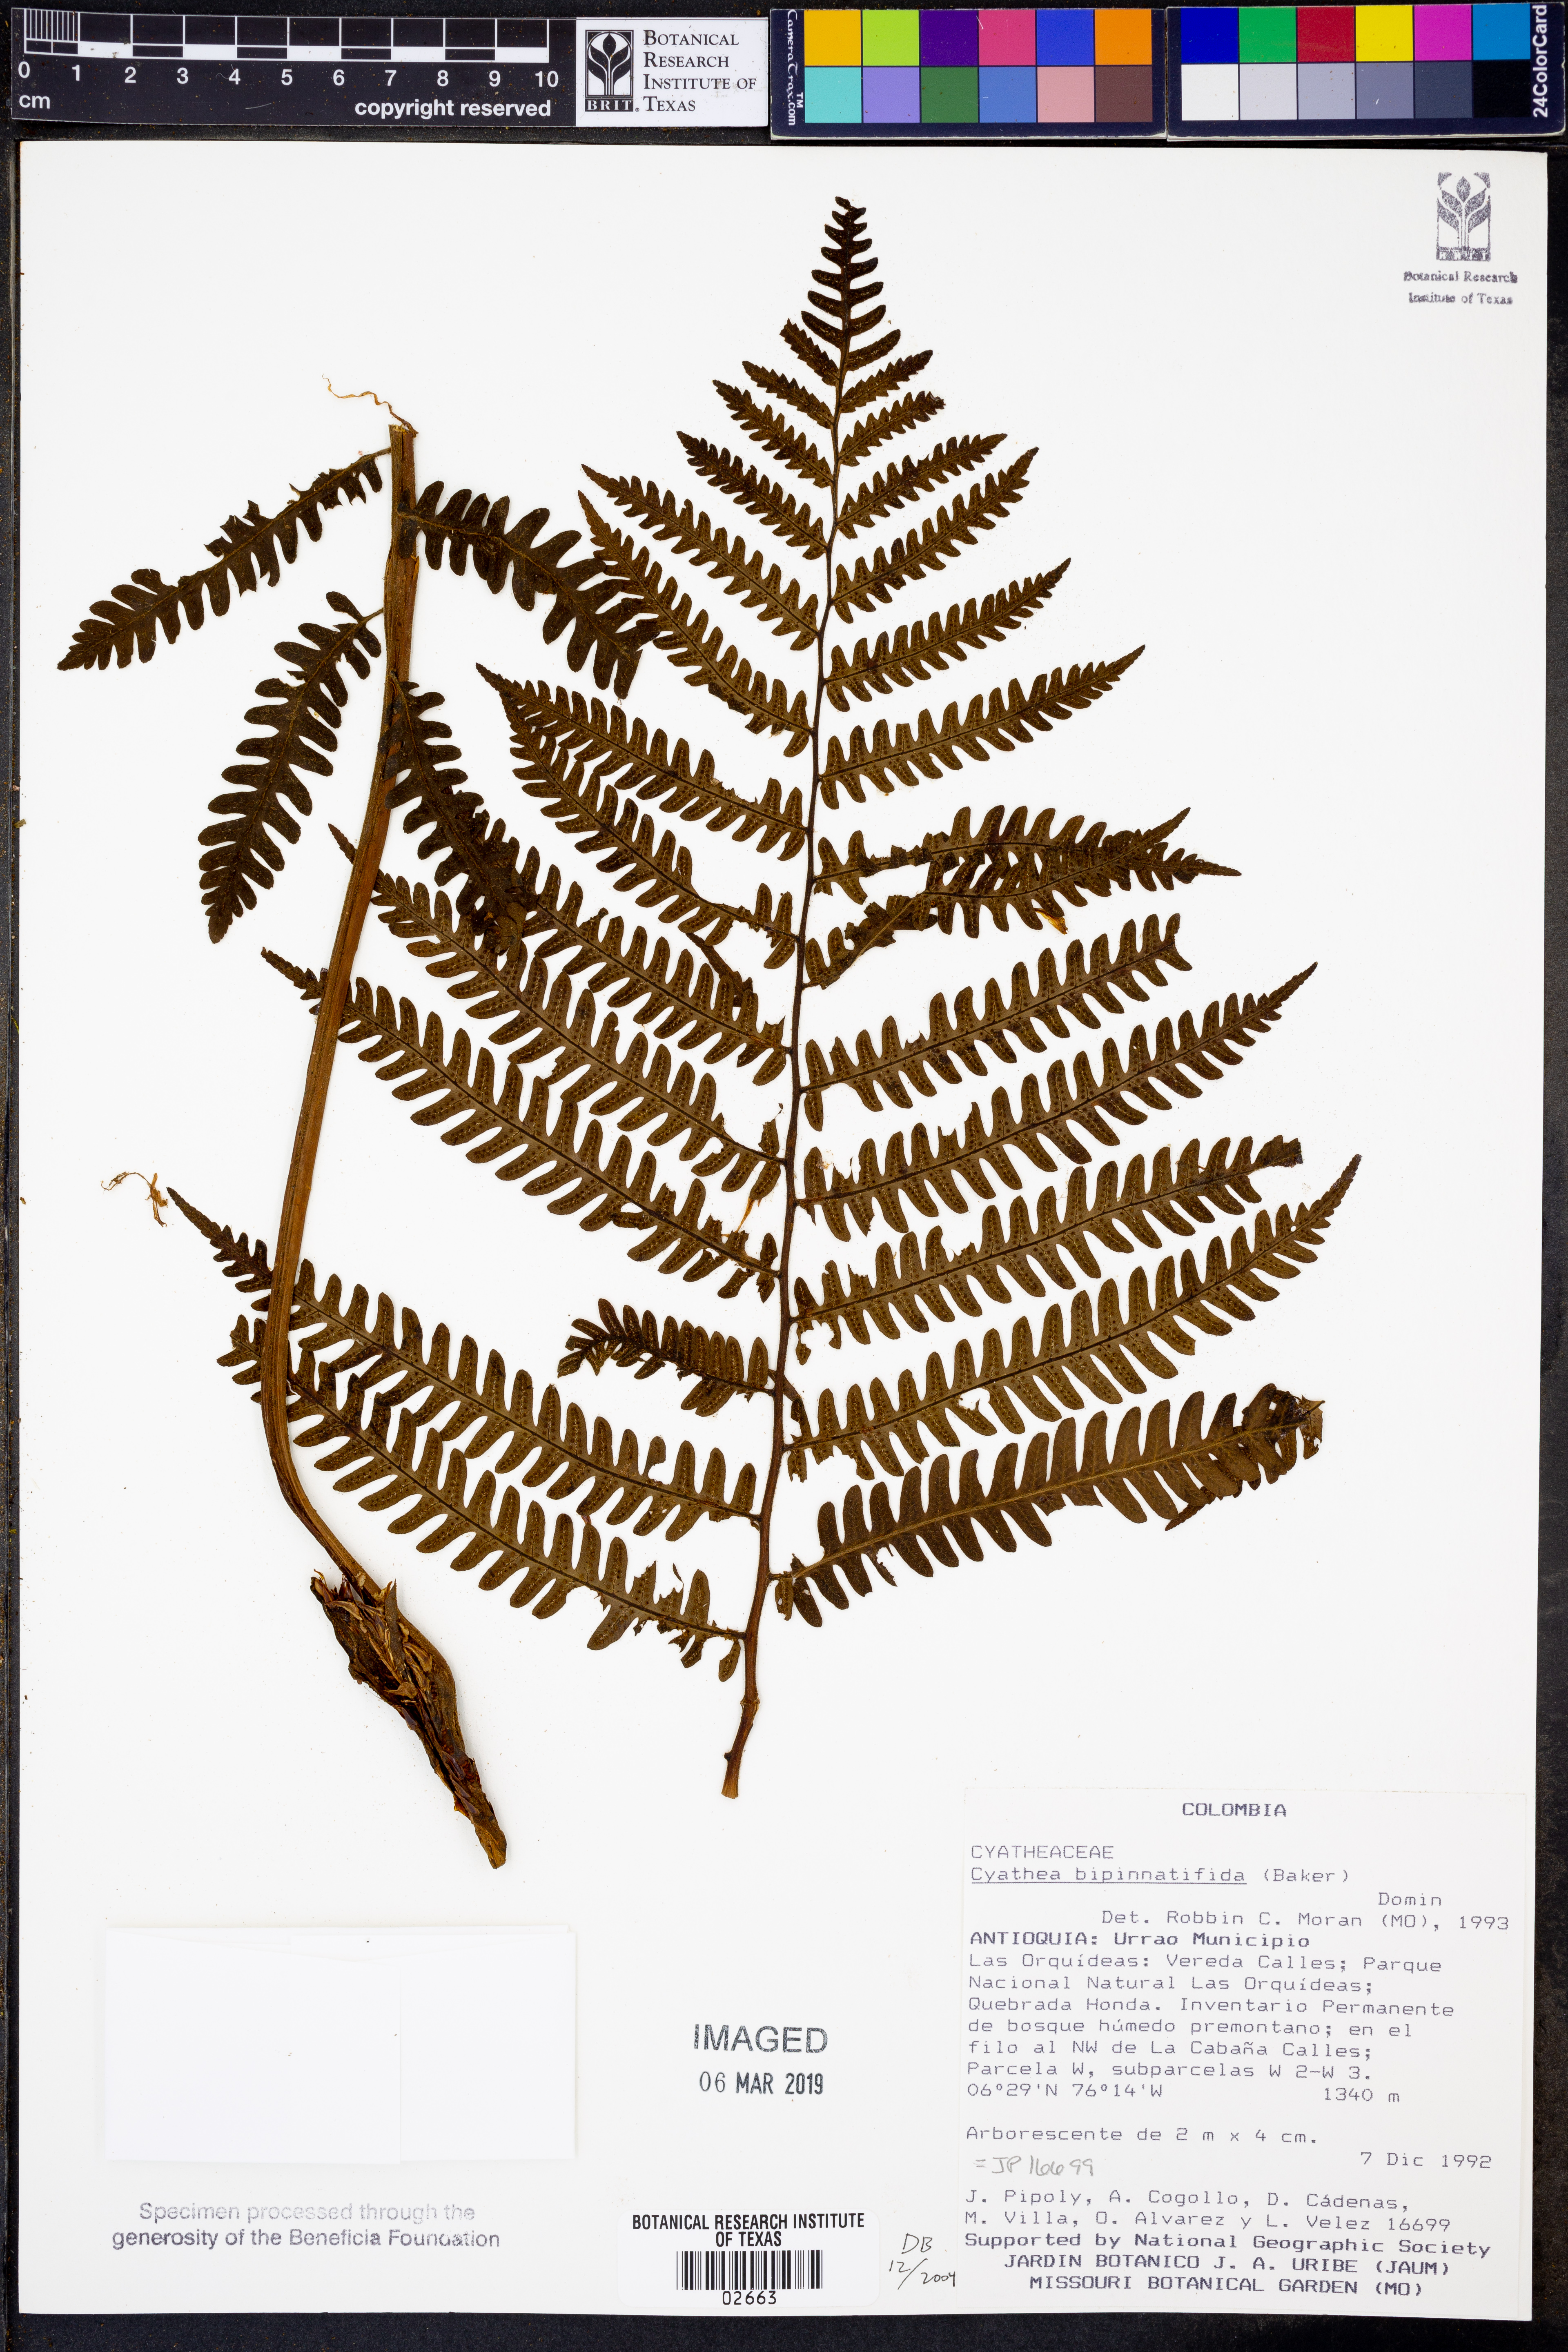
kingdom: Plantae
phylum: Tracheophyta
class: Polypodiopsida
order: Cyatheales
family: Cyatheaceae
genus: Cyathea
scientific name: Cyathea bipinnata
